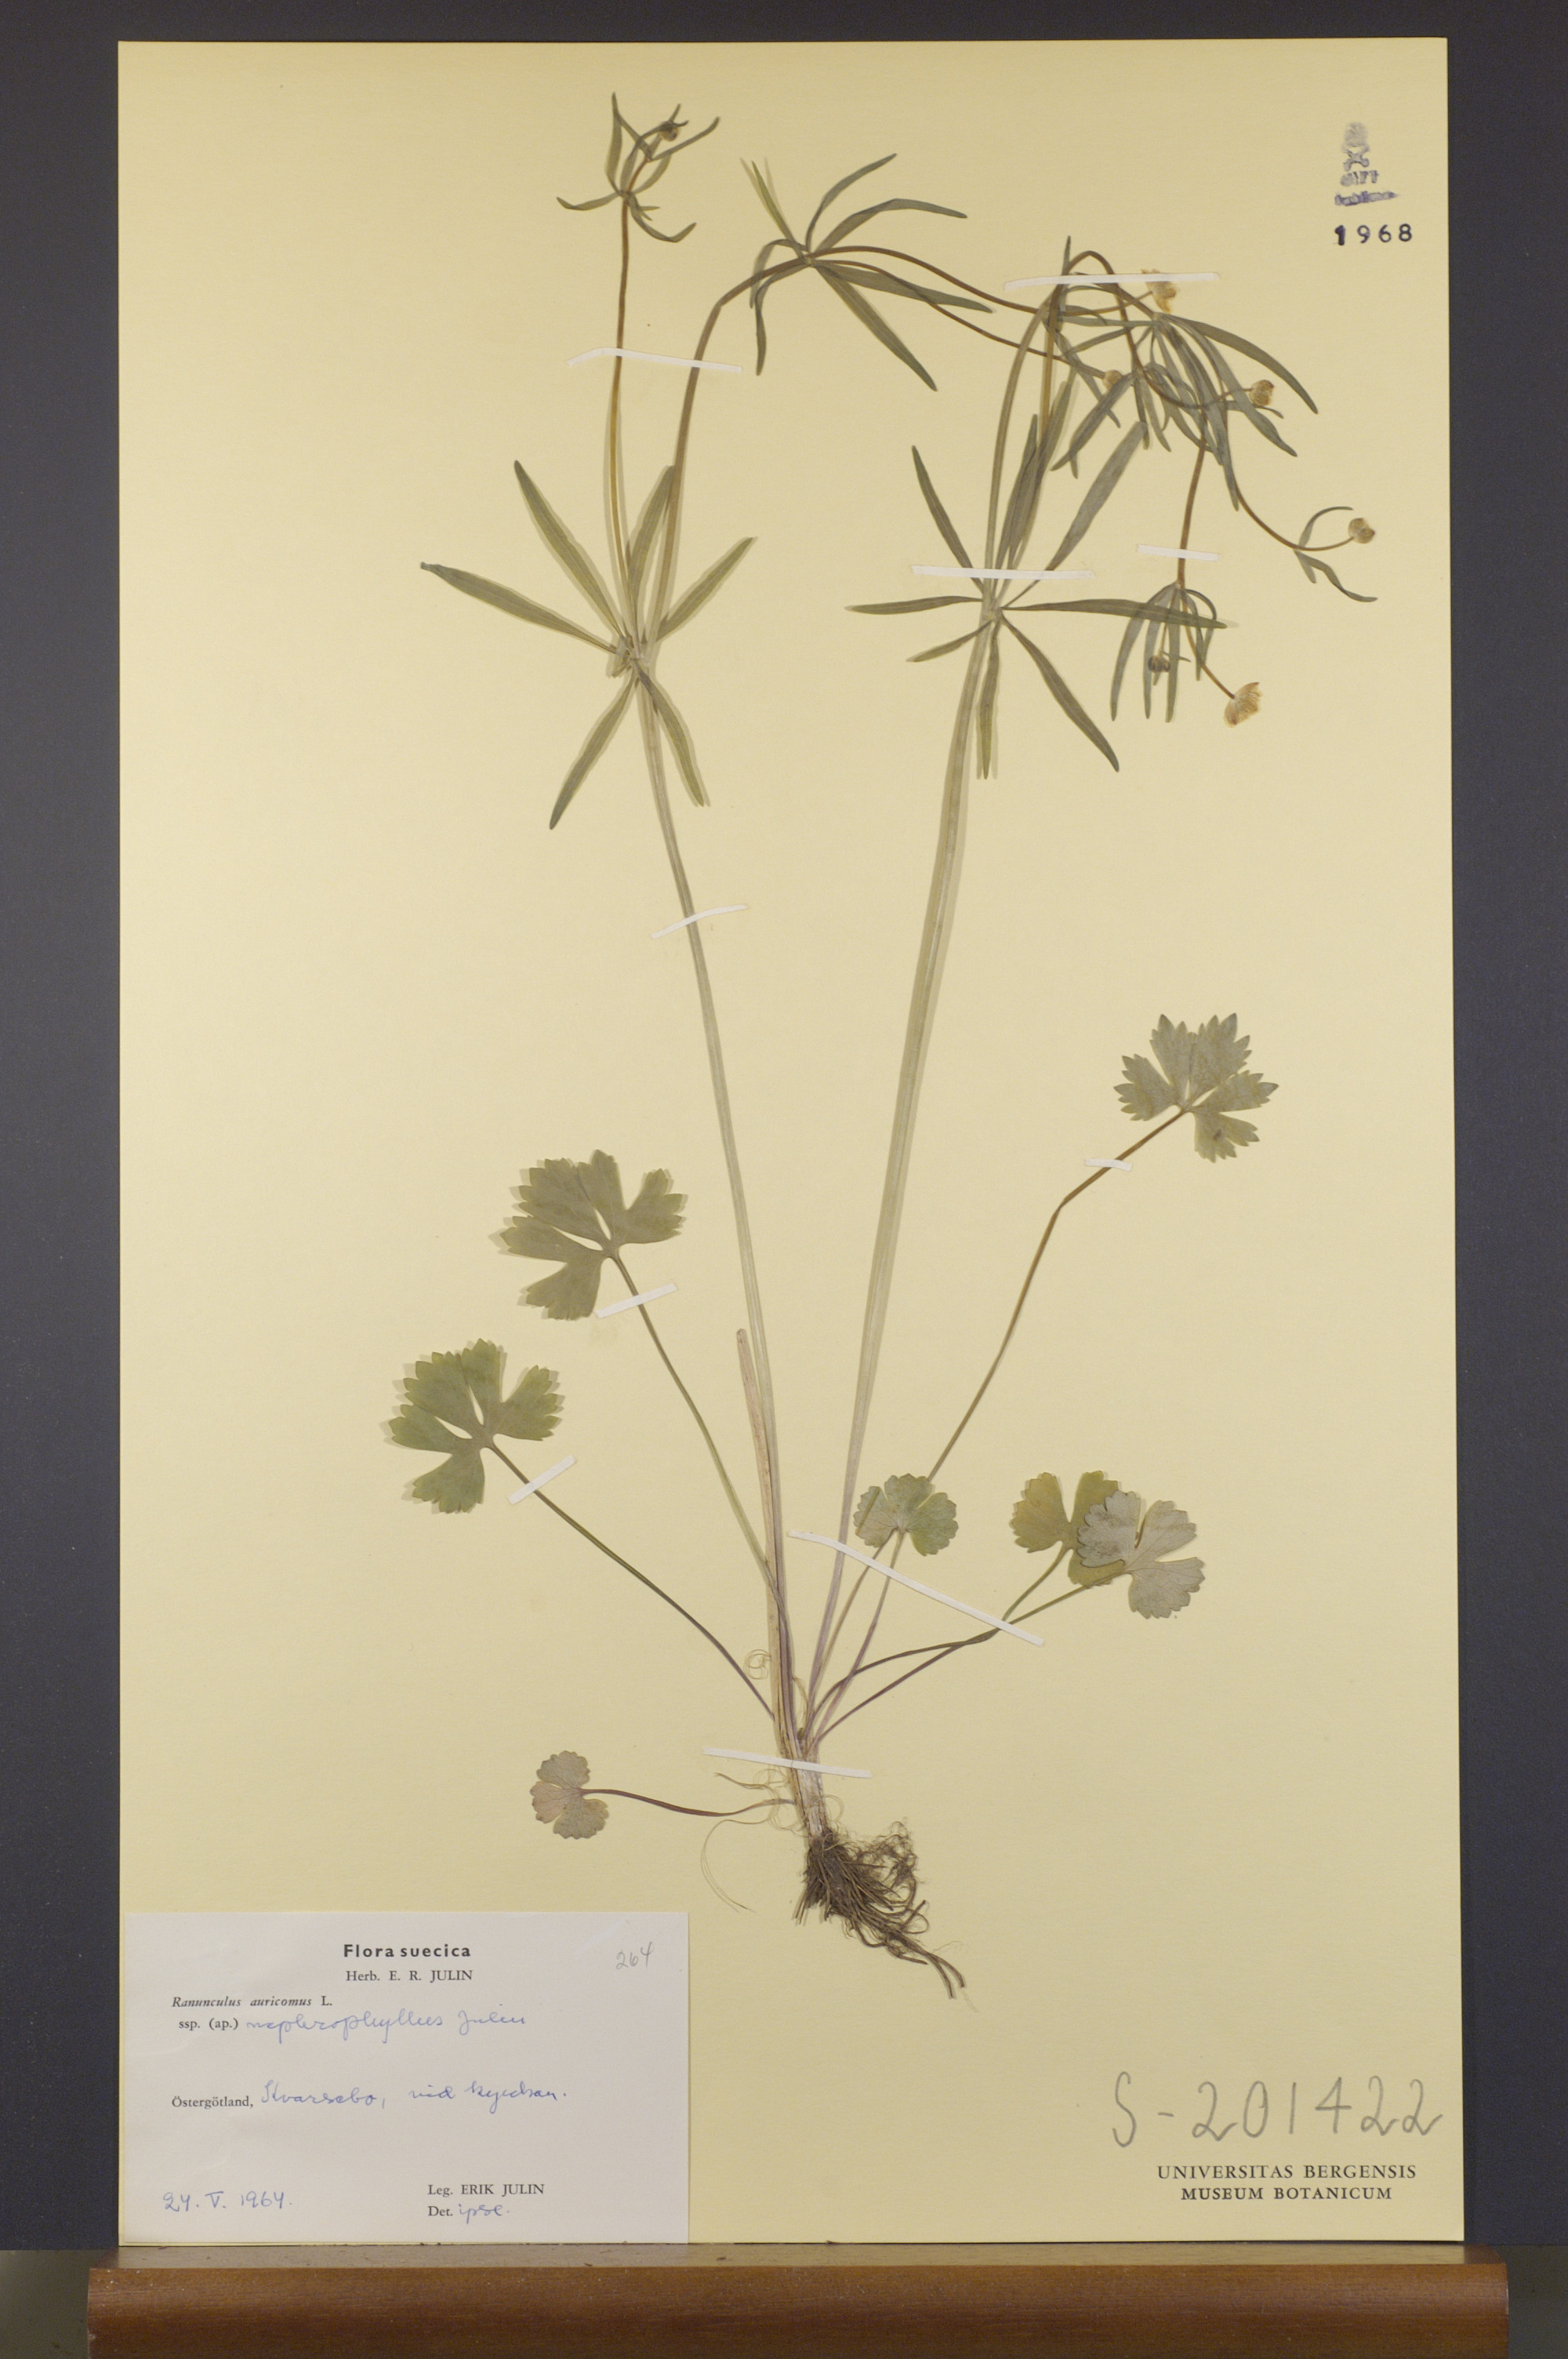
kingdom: Plantae
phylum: Tracheophyta
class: Magnoliopsida
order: Ranunculales
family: Ranunculaceae
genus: Ranunculus
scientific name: Ranunculus nephrophyllus
